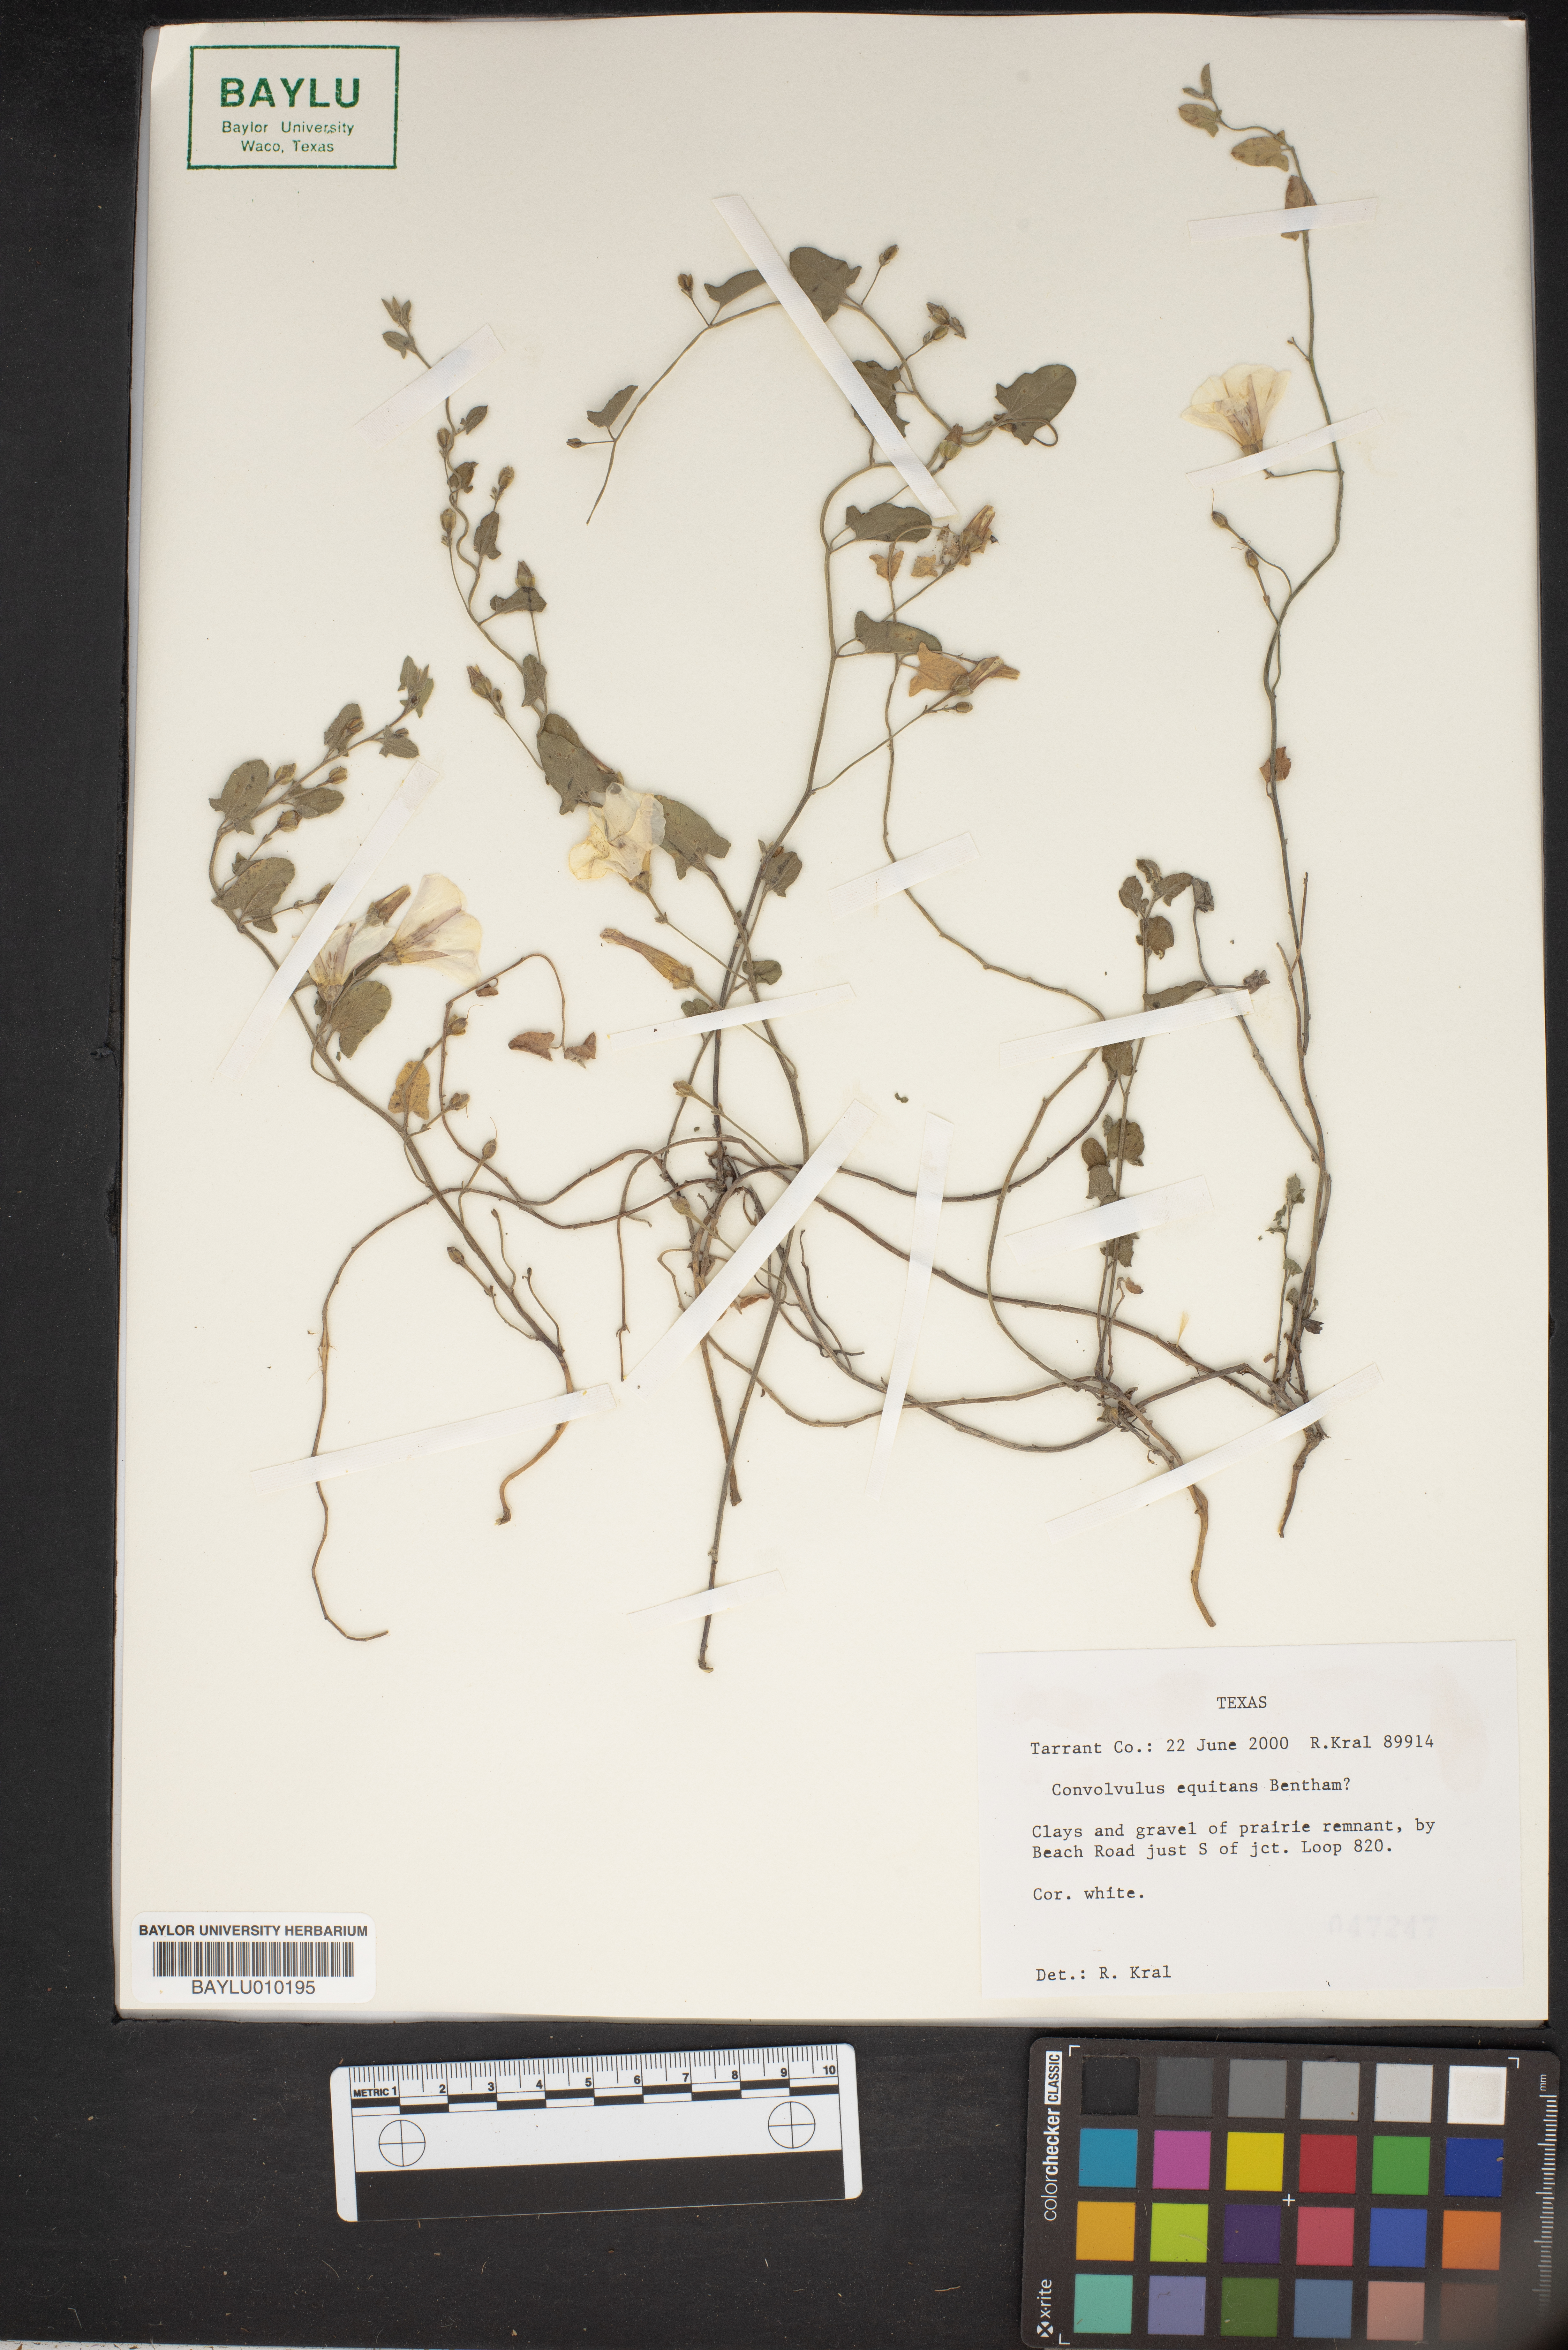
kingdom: Plantae
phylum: Tracheophyta
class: Magnoliopsida
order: Solanales
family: Convolvulaceae
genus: Convolvulus
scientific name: Convolvulus equitans
